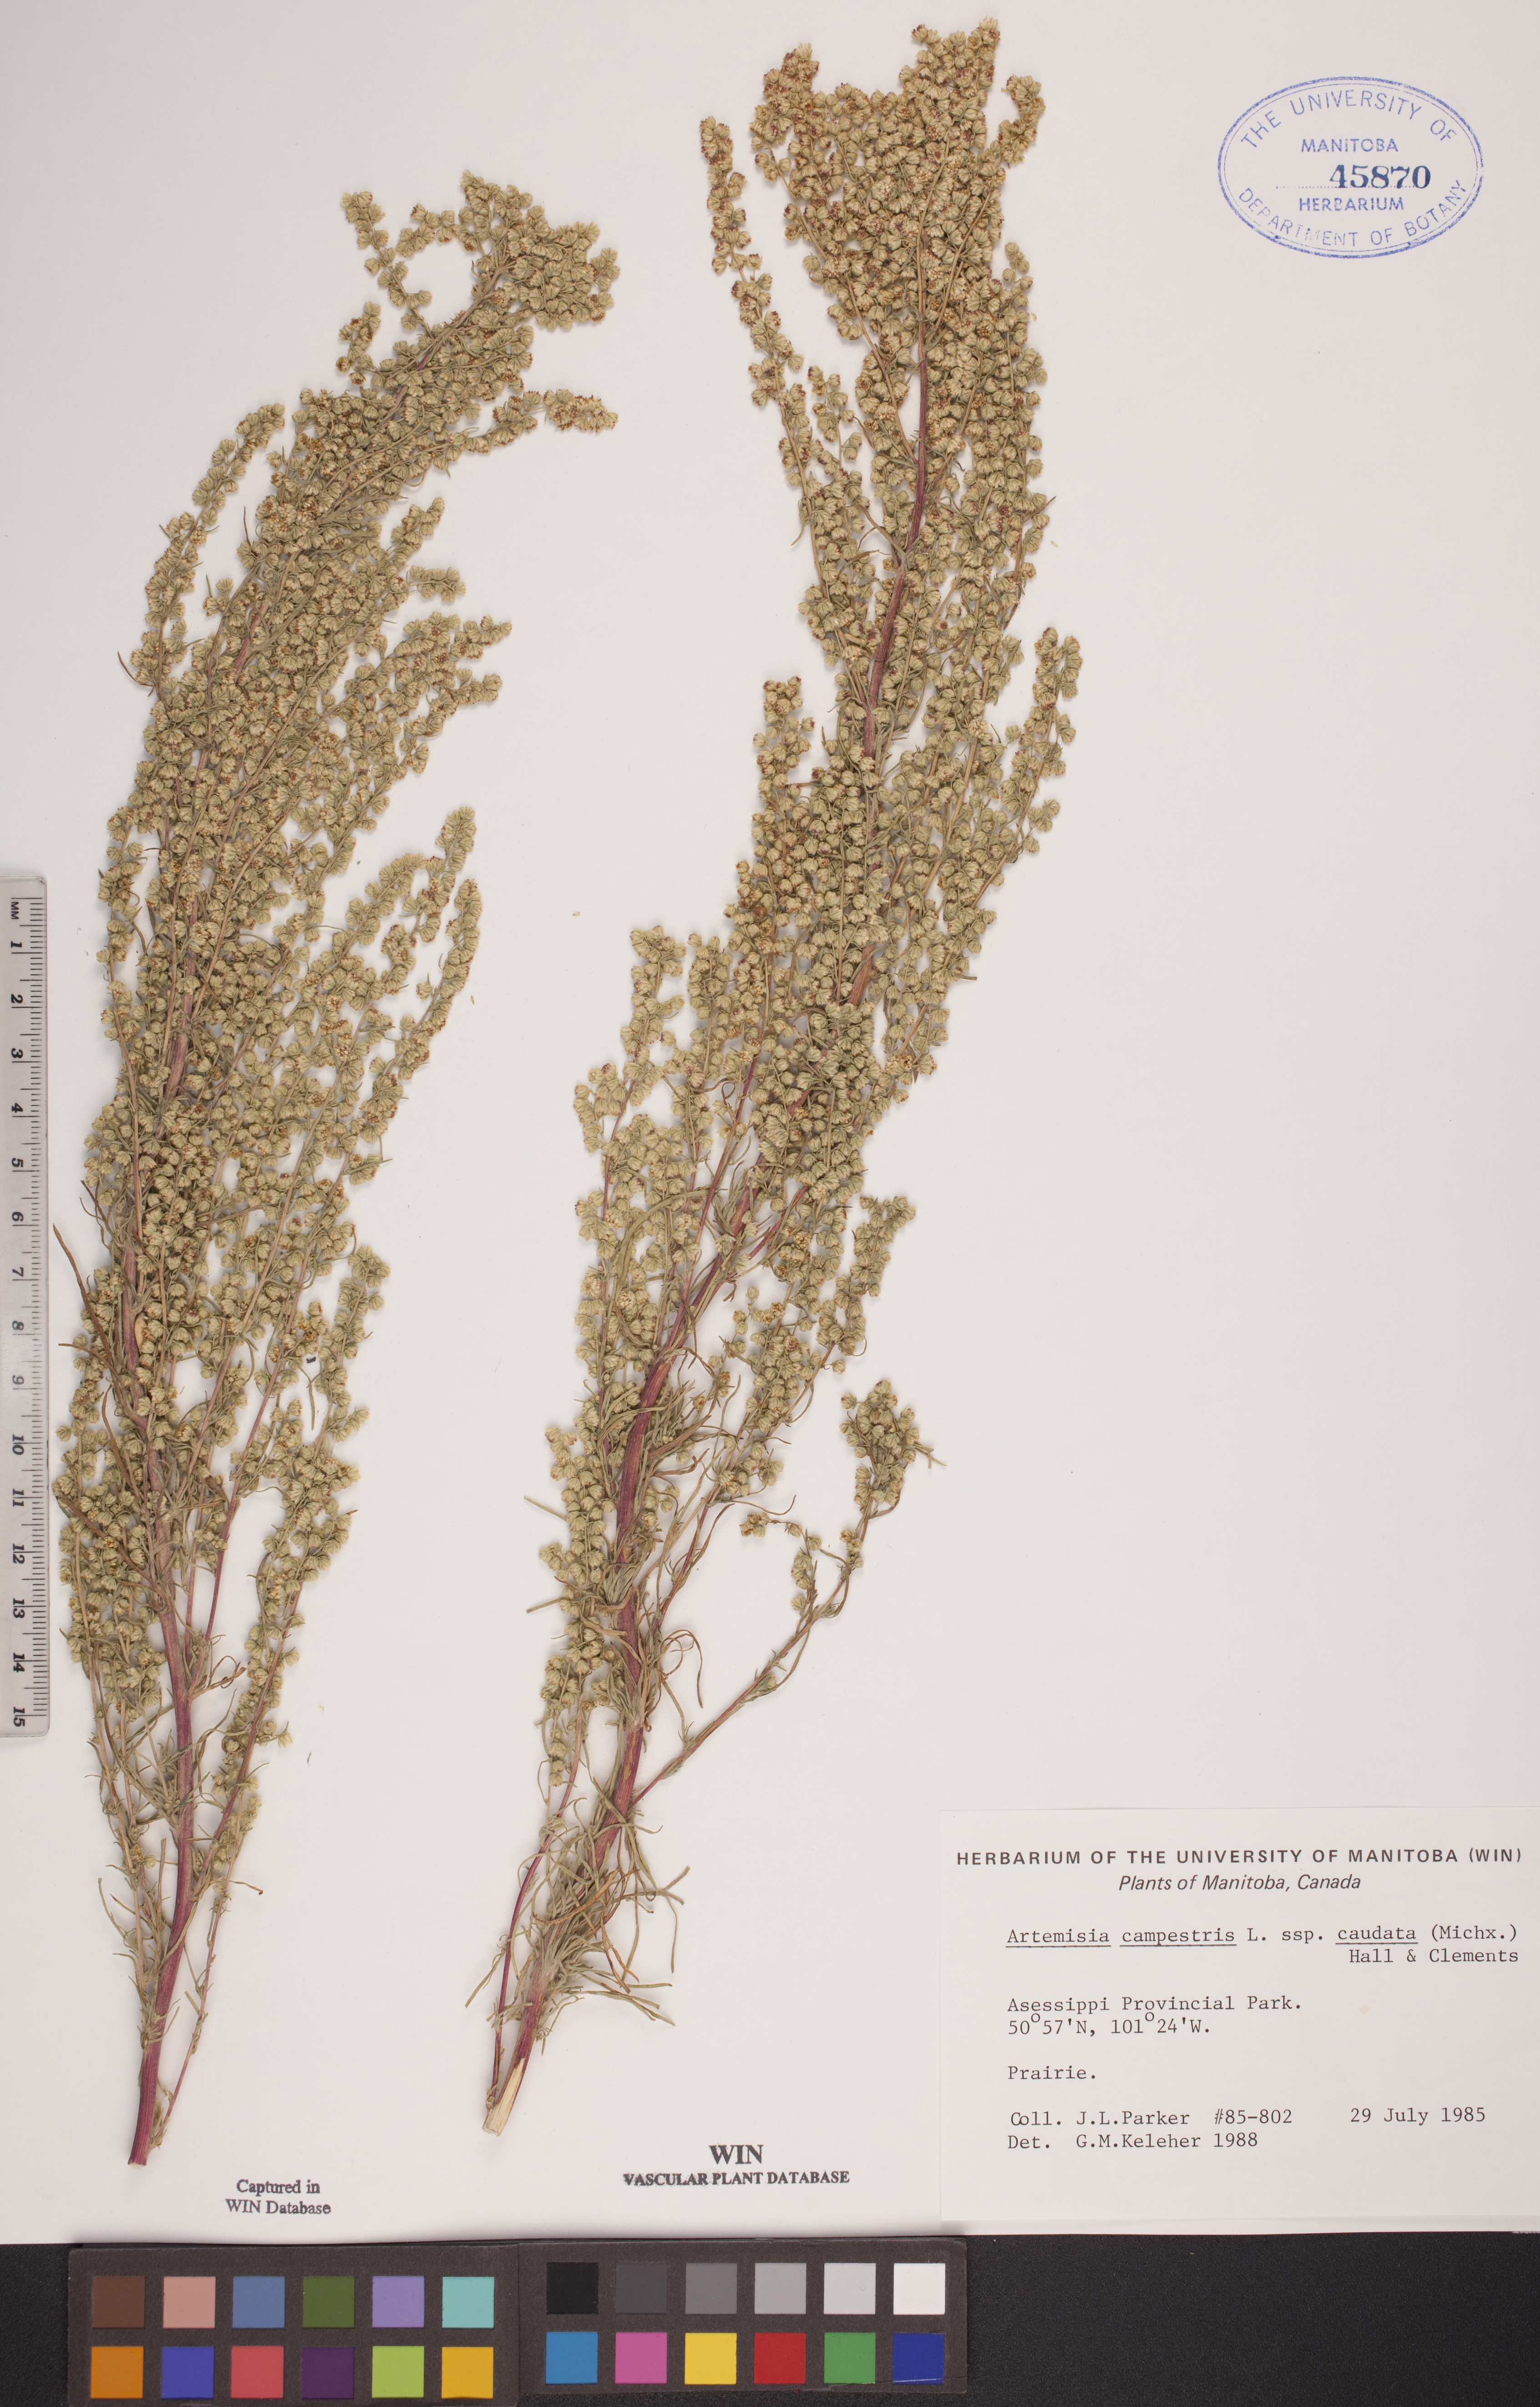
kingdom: Plantae
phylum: Tracheophyta
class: Magnoliopsida
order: Asterales
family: Asteraceae
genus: Artemisia
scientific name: Artemisia campestris
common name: Field wormwood
